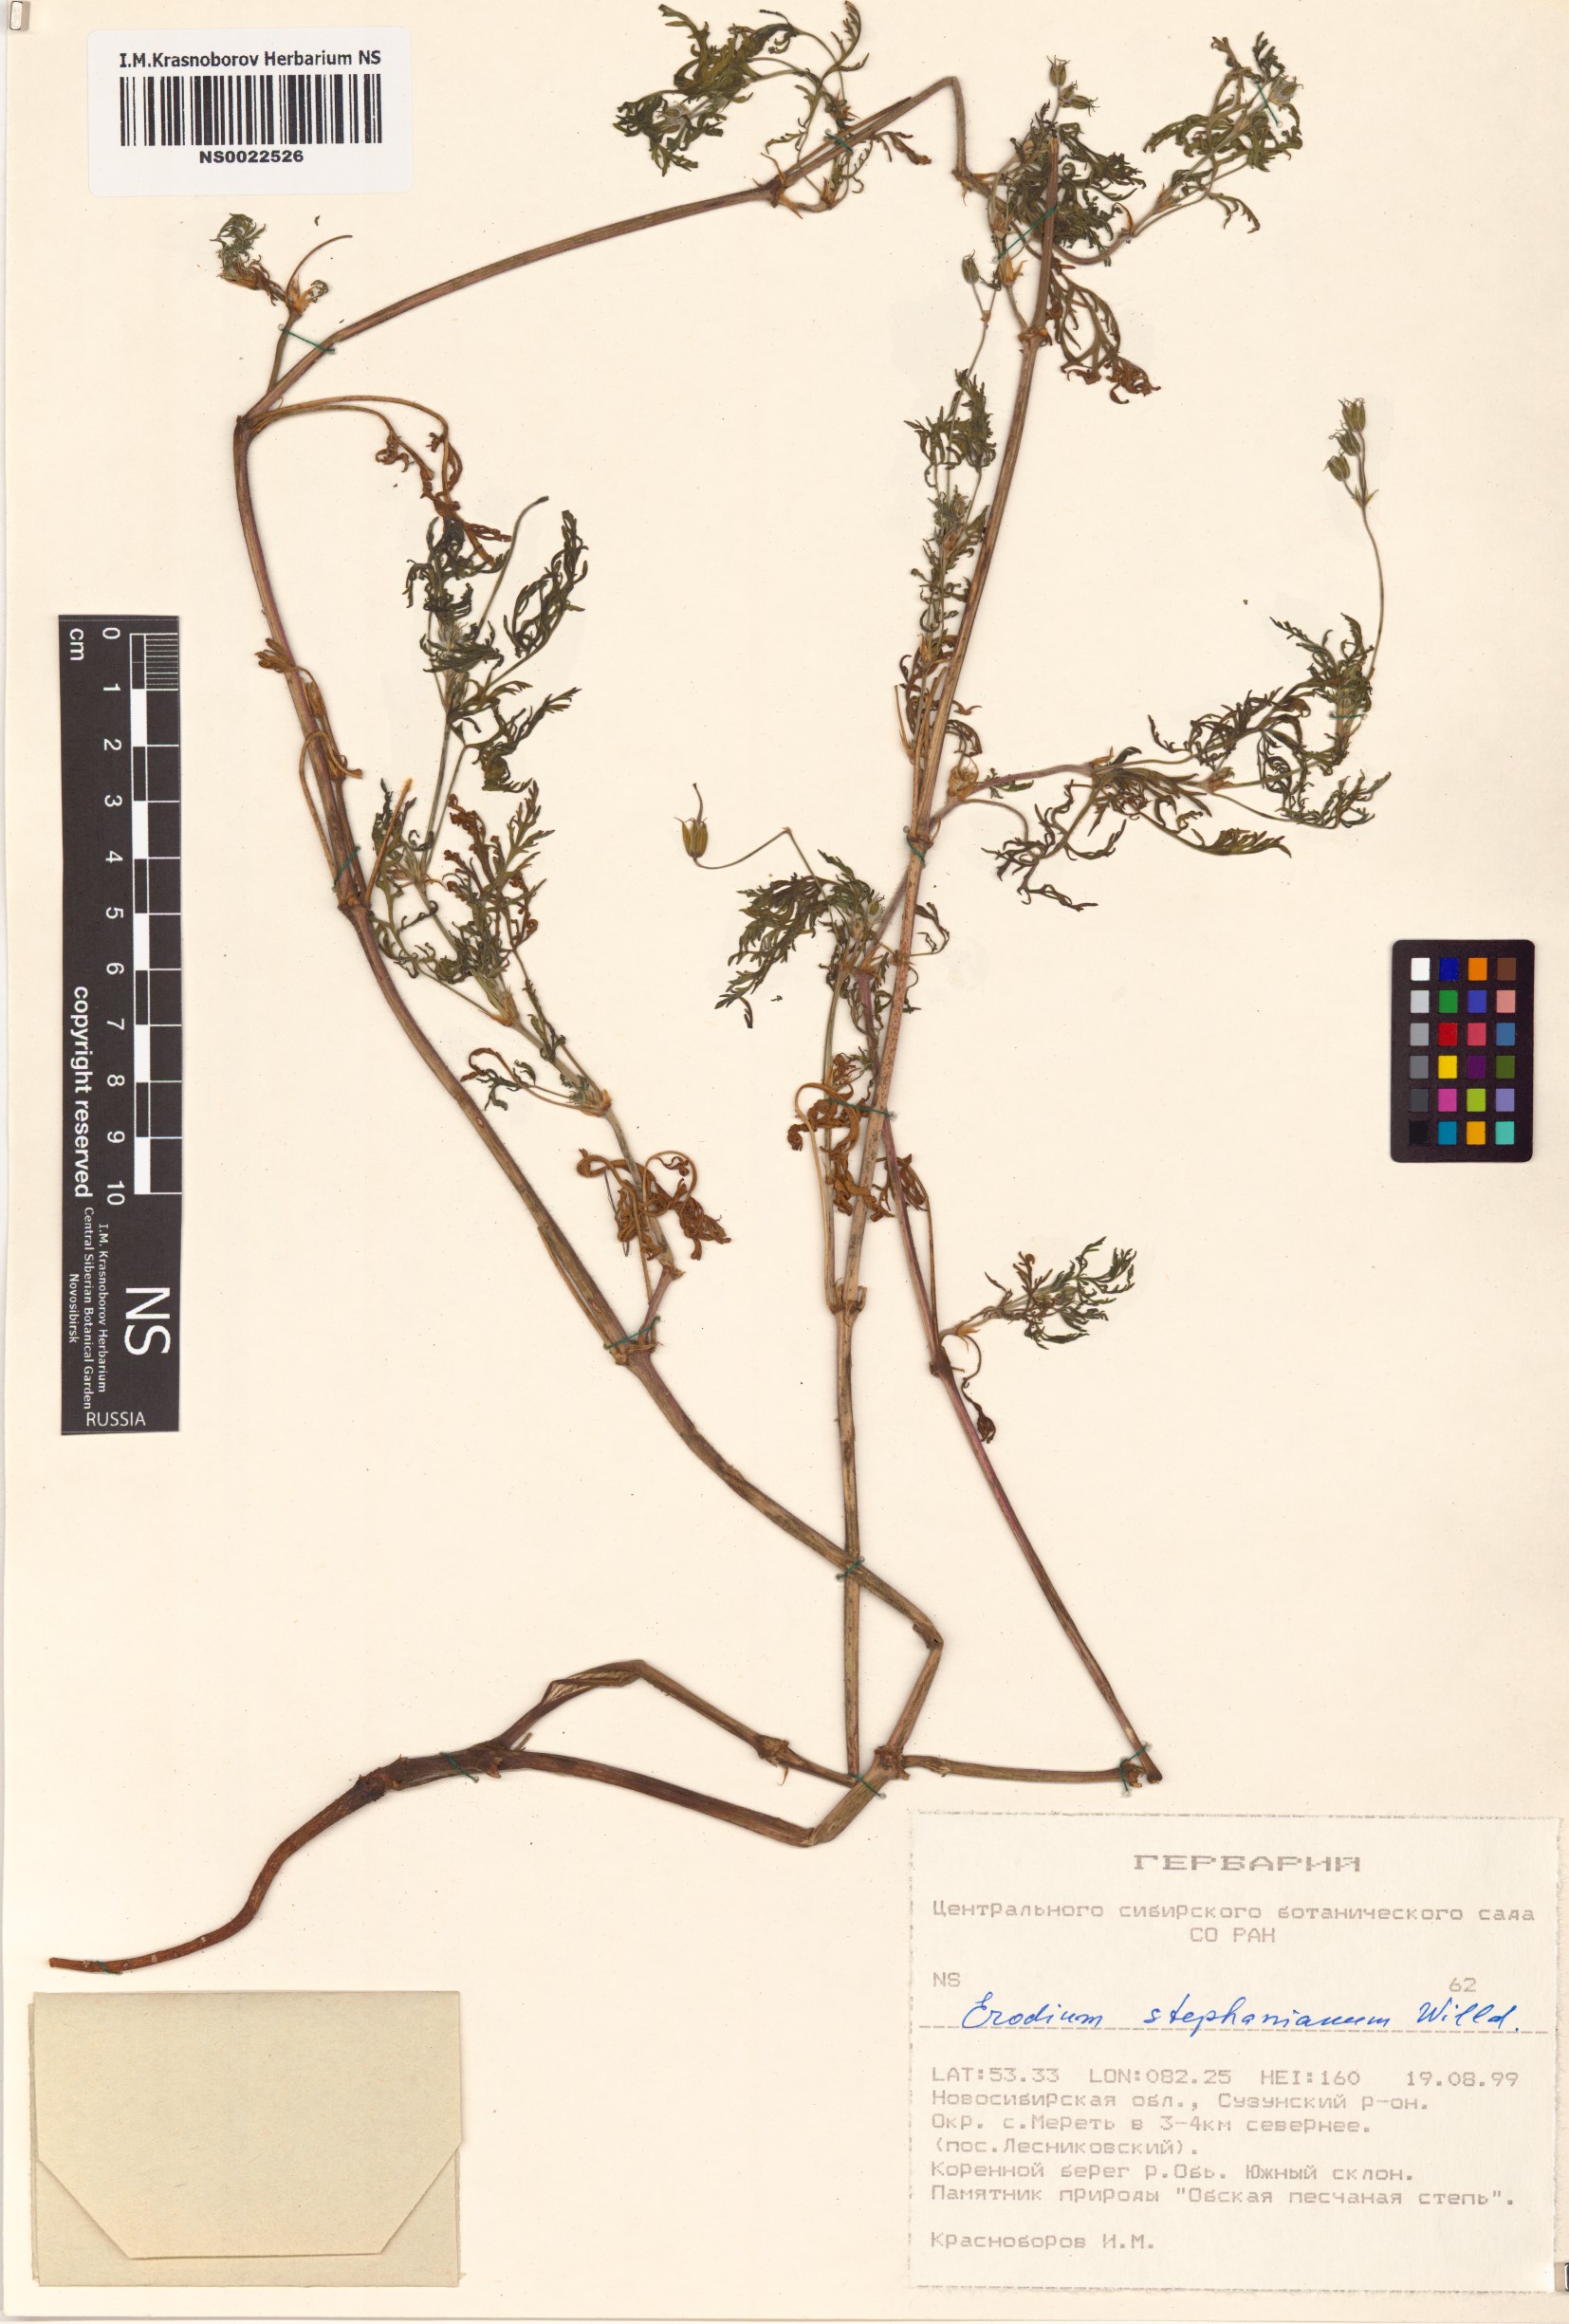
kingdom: Plantae
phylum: Tracheophyta
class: Magnoliopsida
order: Geraniales
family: Geraniaceae
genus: Erodium
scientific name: Erodium stephanianum
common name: Stephen's stork's bill
